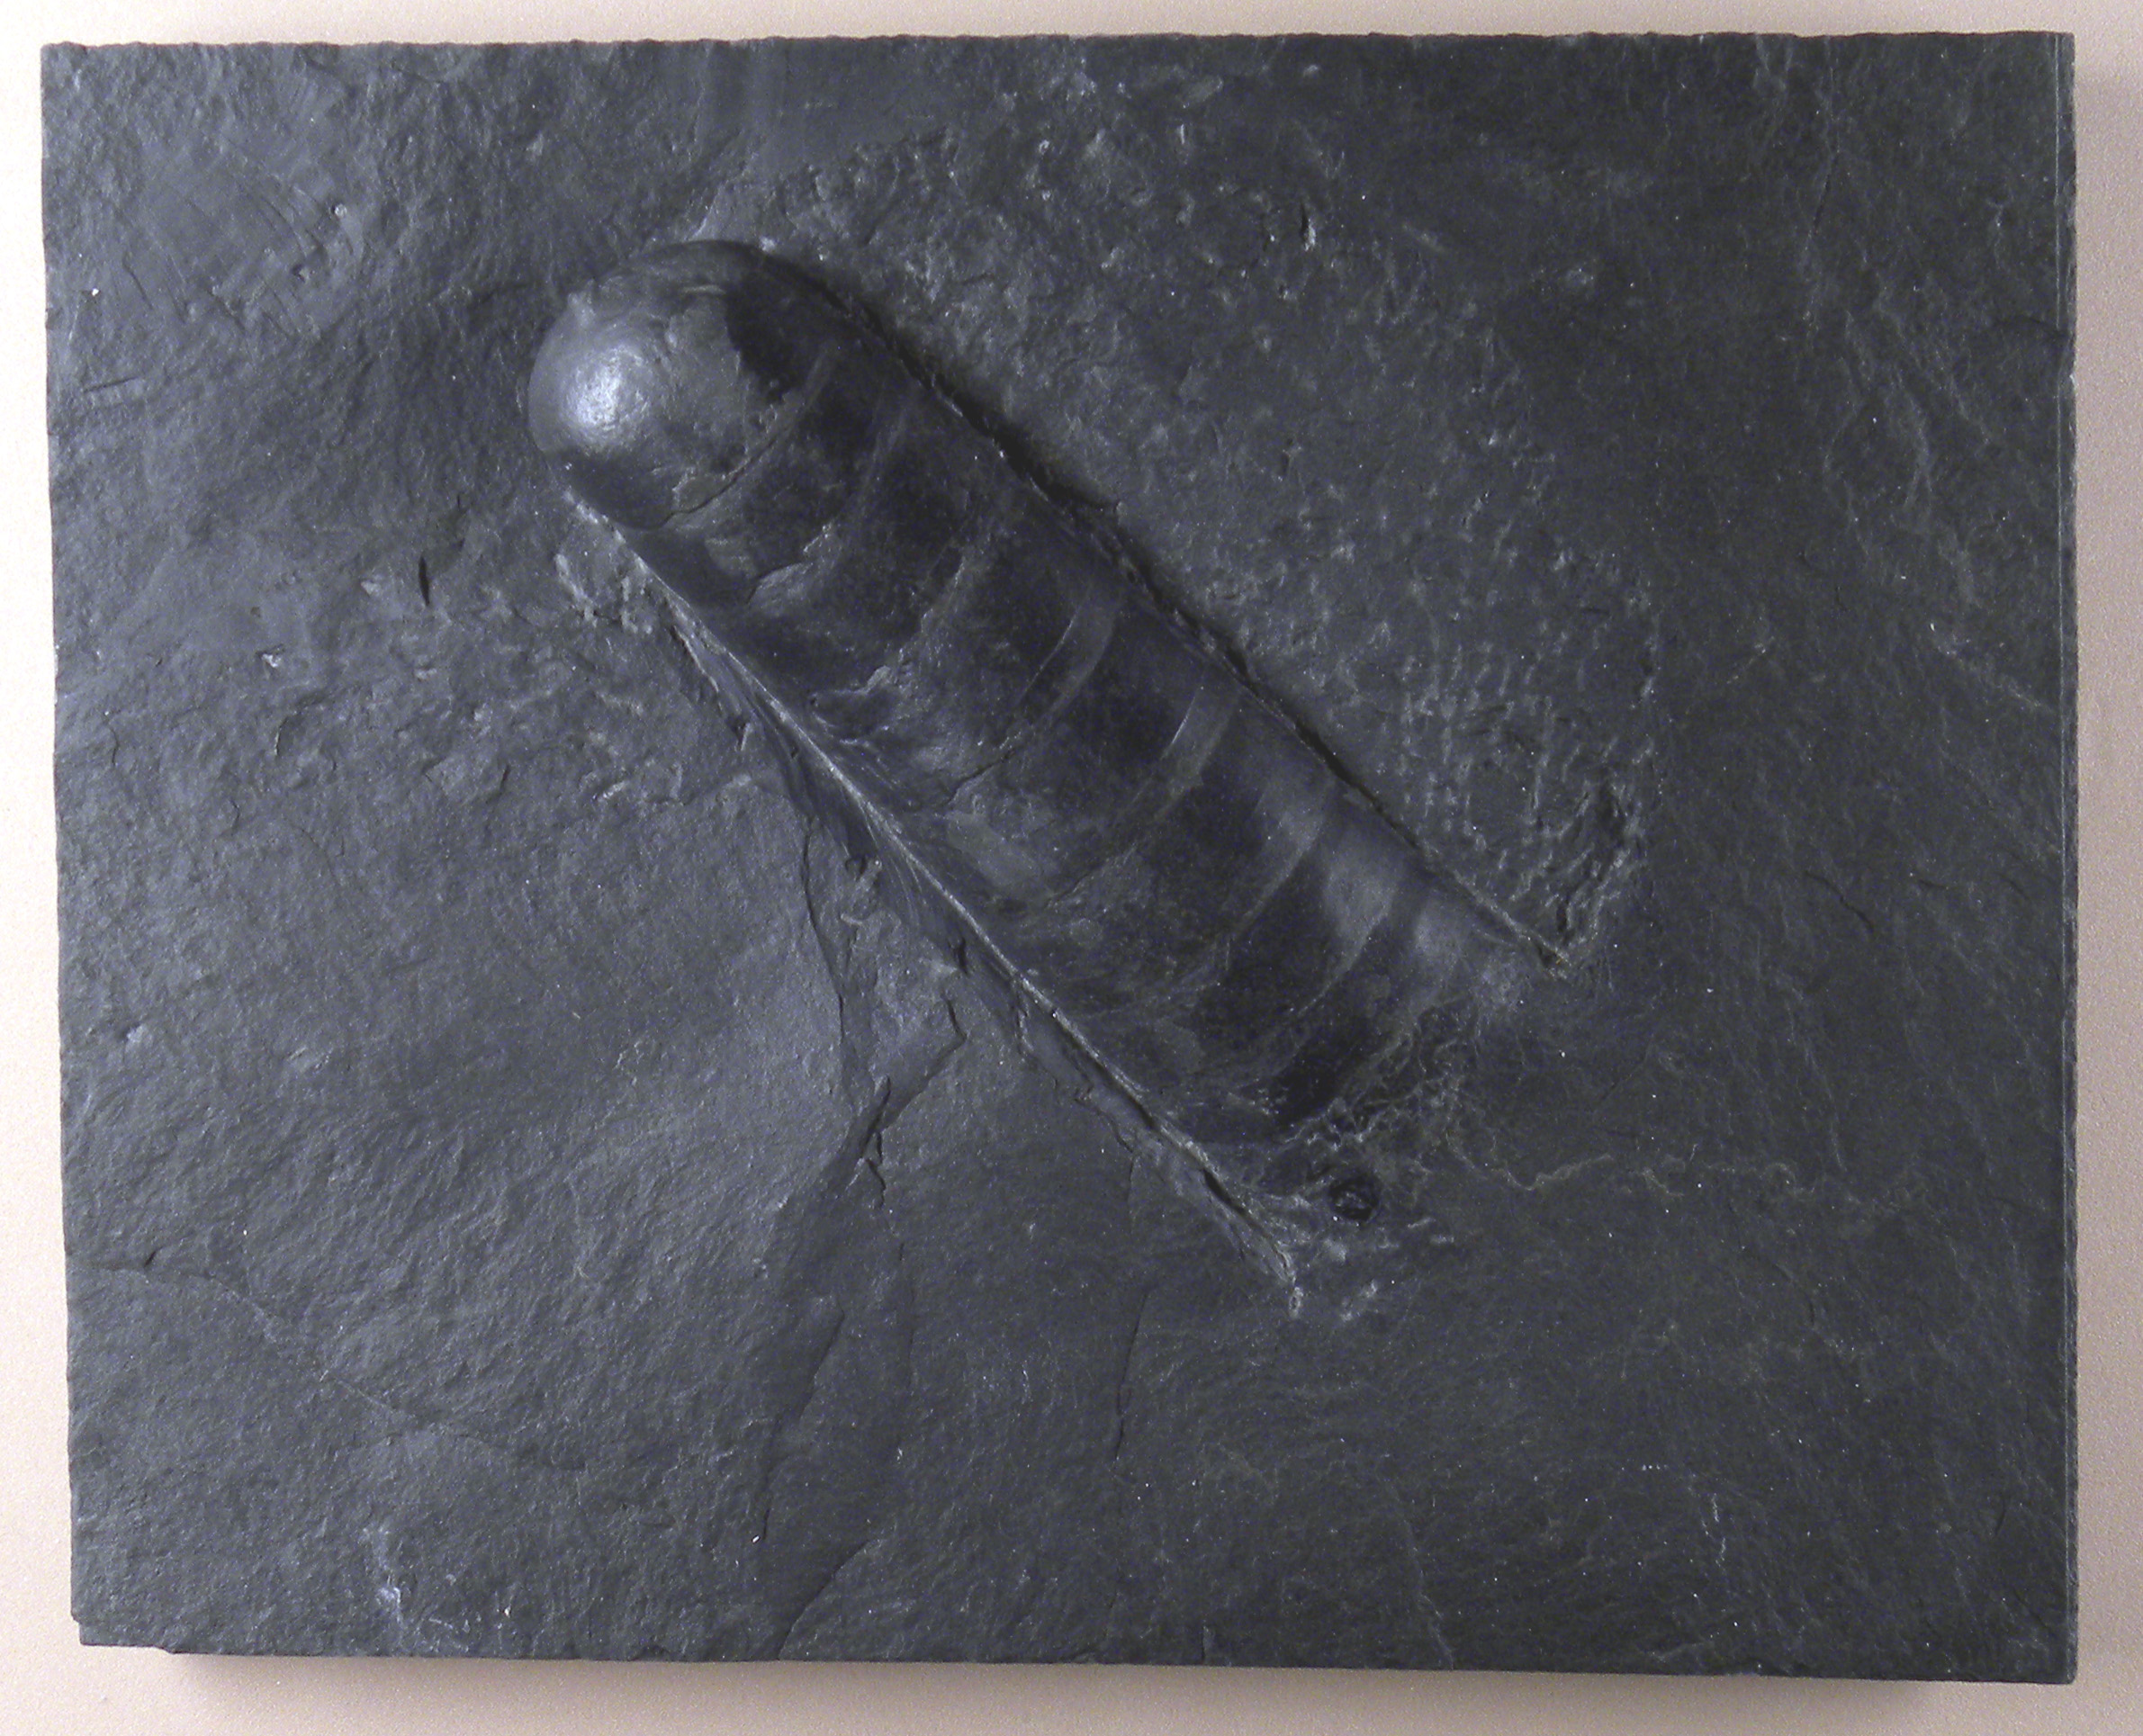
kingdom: Animalia
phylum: Mollusca
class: Cephalopoda
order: Orthocerida
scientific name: Orthocerida
